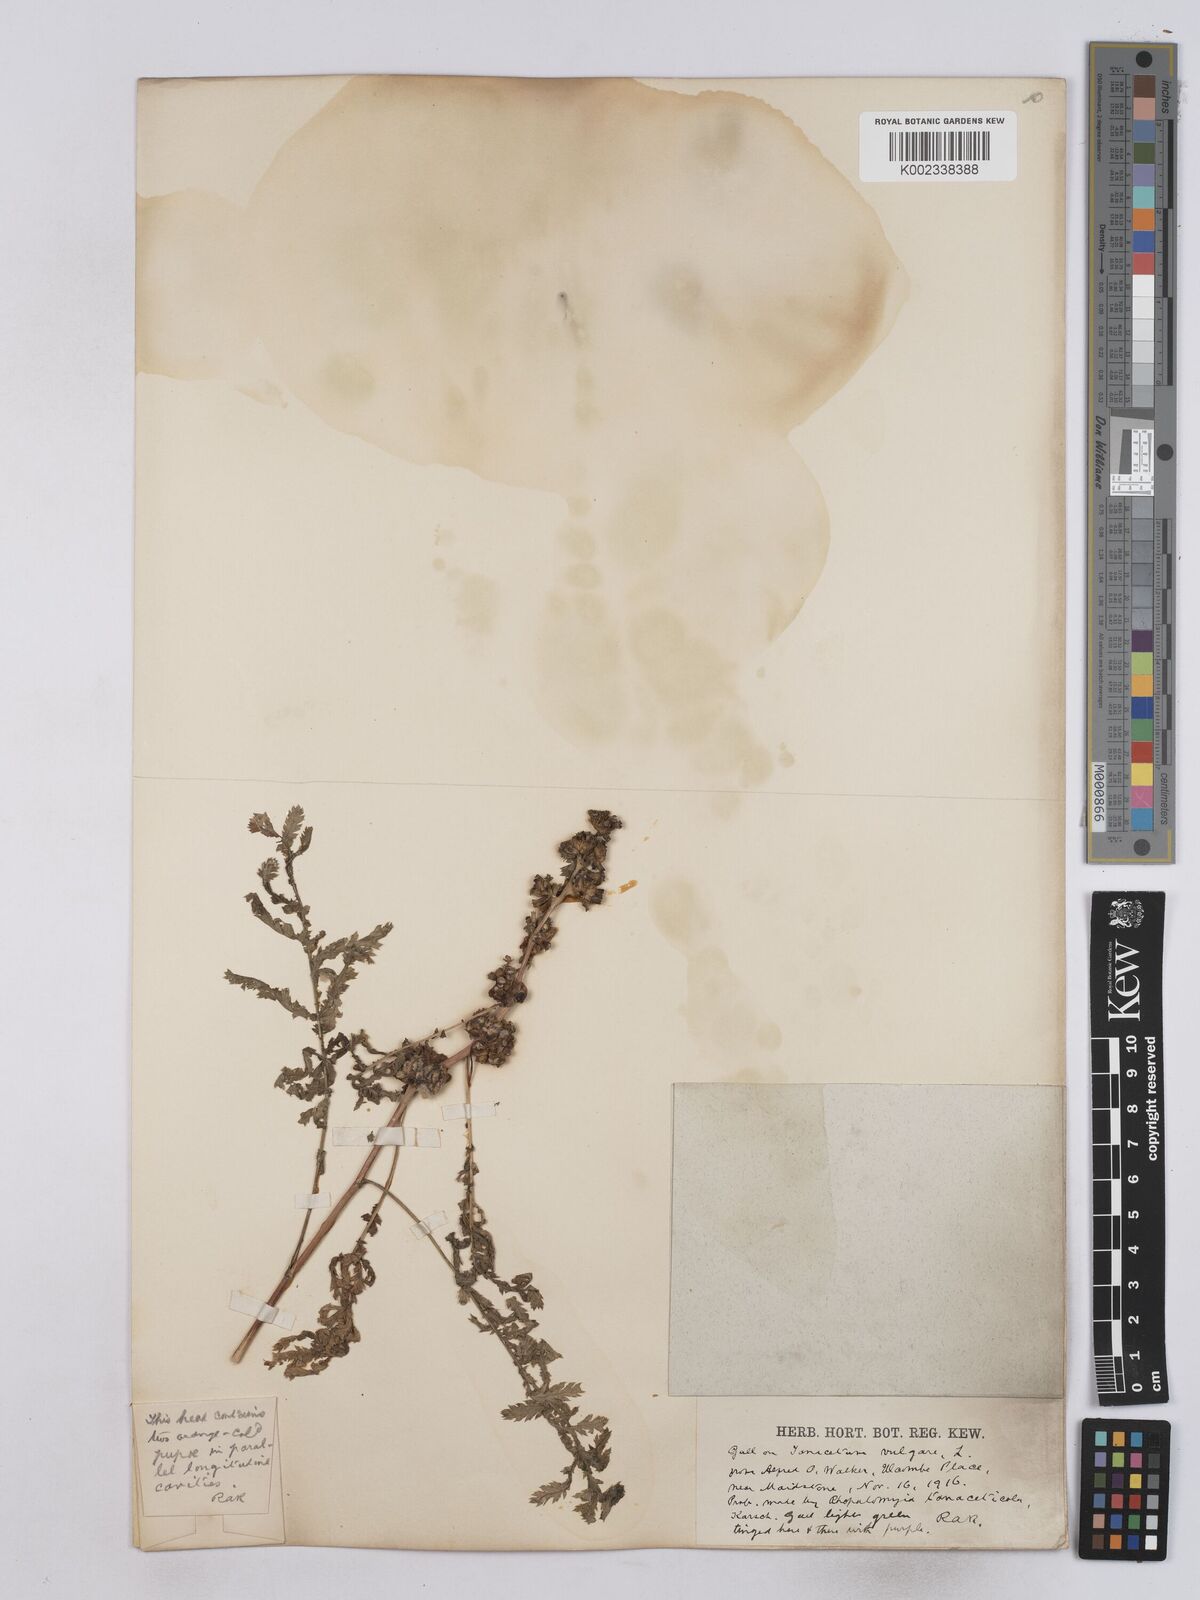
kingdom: Plantae
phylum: Tracheophyta
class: Magnoliopsida
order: Asterales
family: Asteraceae
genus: Tanacetum
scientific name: Tanacetum vulgare
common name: Common tansy
